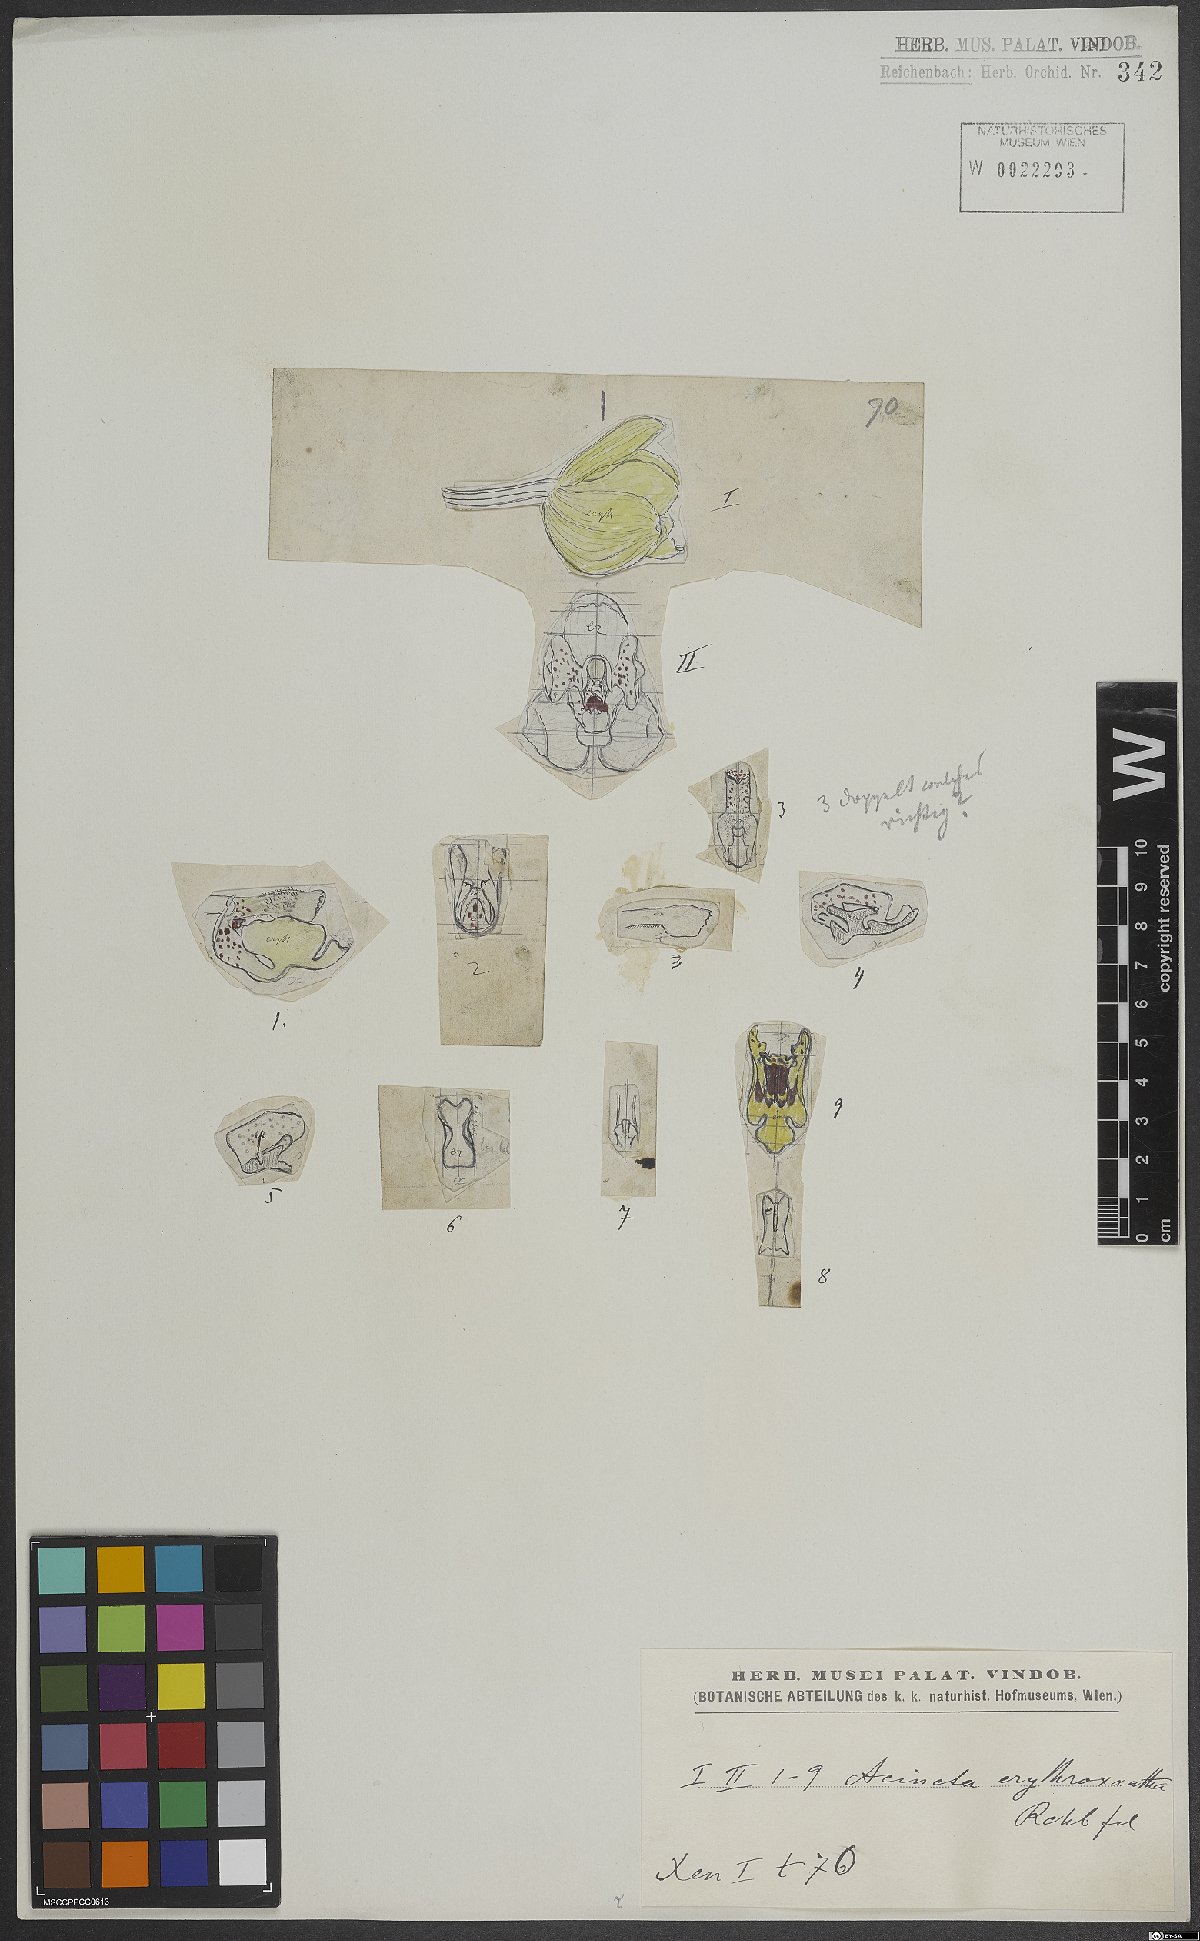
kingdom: Plantae
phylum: Tracheophyta
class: Liliopsida
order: Asparagales
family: Orchidaceae
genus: Acineta
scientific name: Acineta erythroxantha
